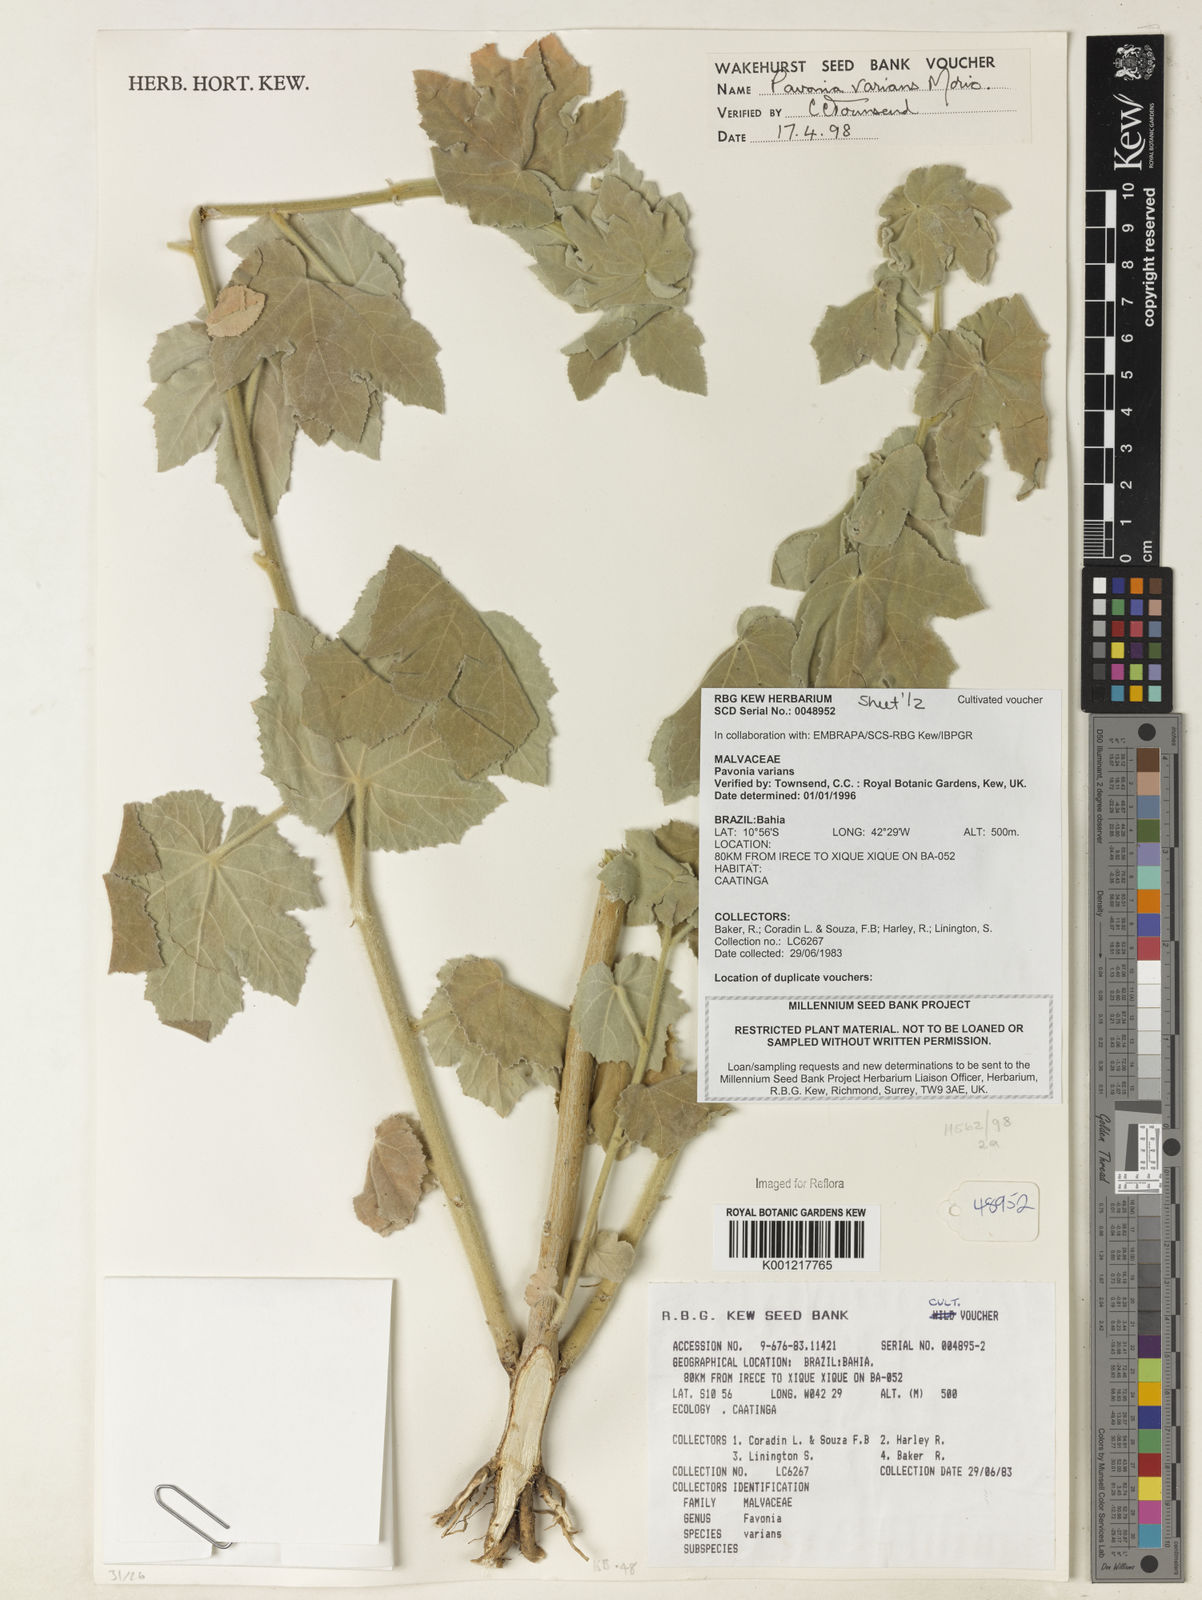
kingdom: Plantae
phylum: Tracheophyta
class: Magnoliopsida
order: Malvales
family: Malvaceae
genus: Pavonia
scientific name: Pavonia varians
